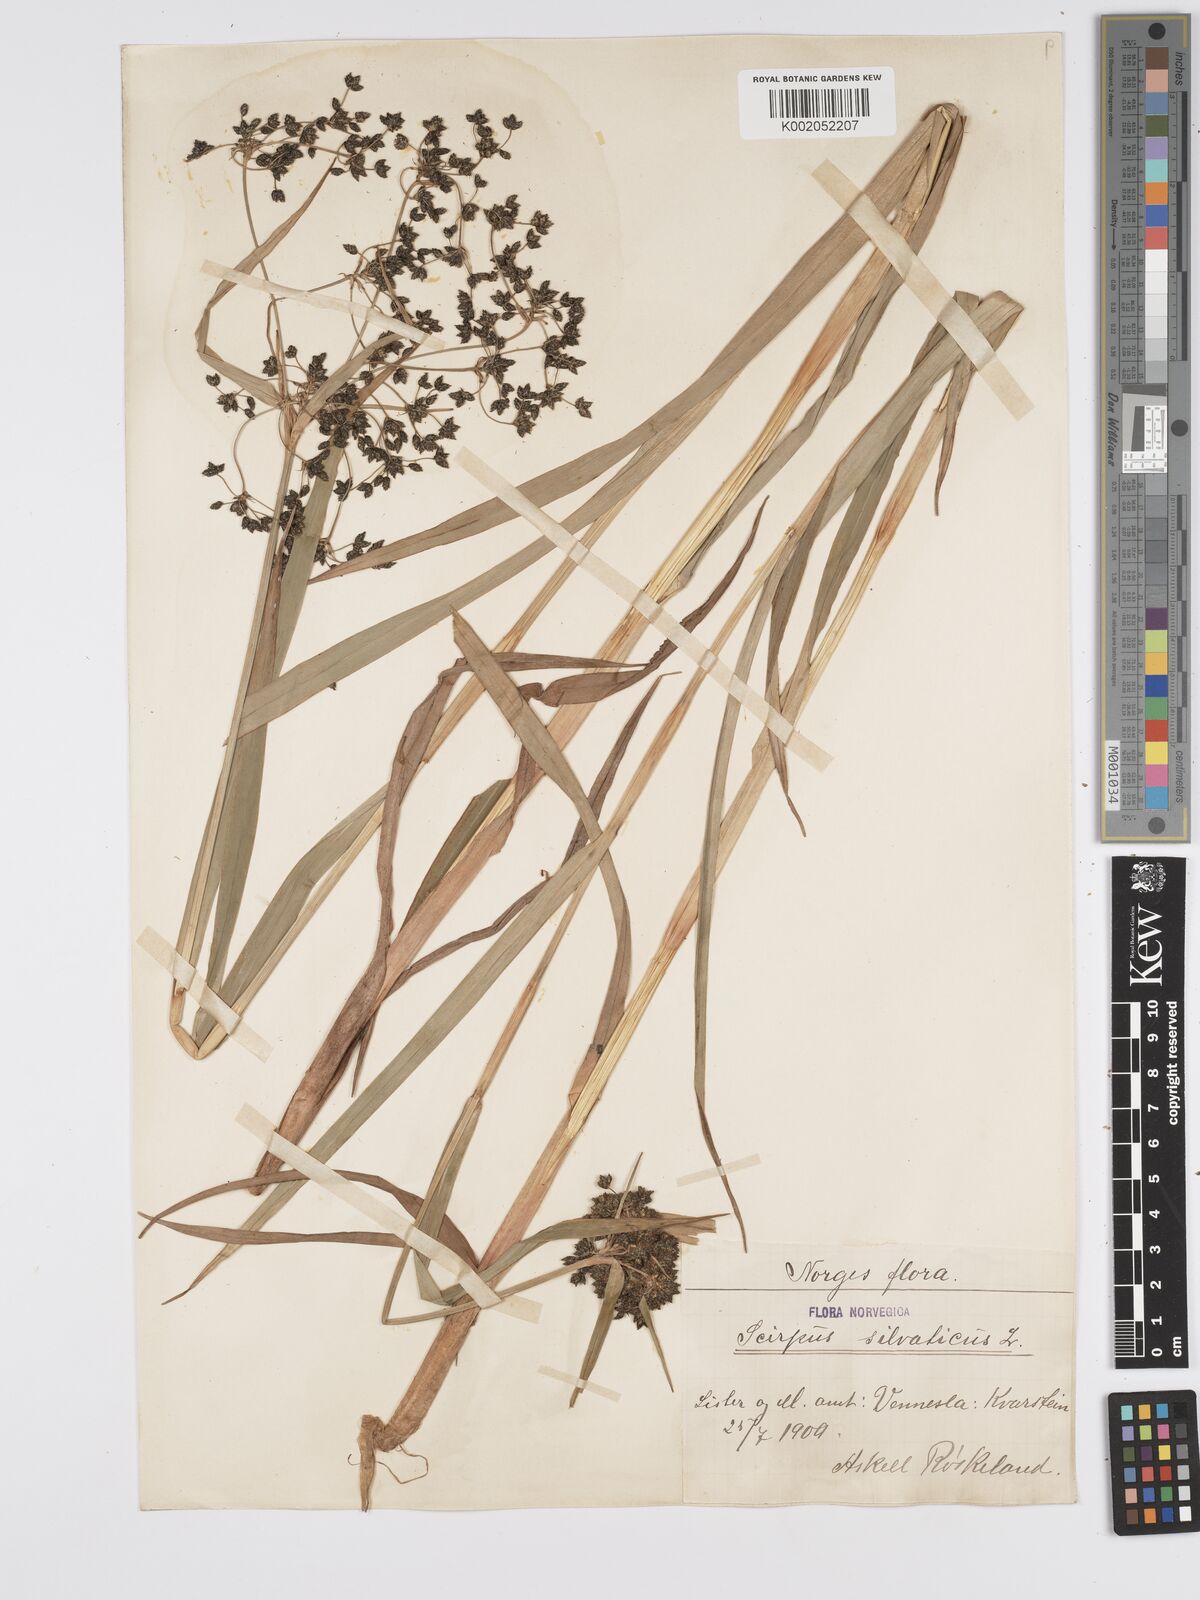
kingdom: Plantae
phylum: Tracheophyta
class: Liliopsida
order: Poales
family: Cyperaceae
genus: Scirpus
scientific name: Scirpus sylvaticus
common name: Wood club-rush
